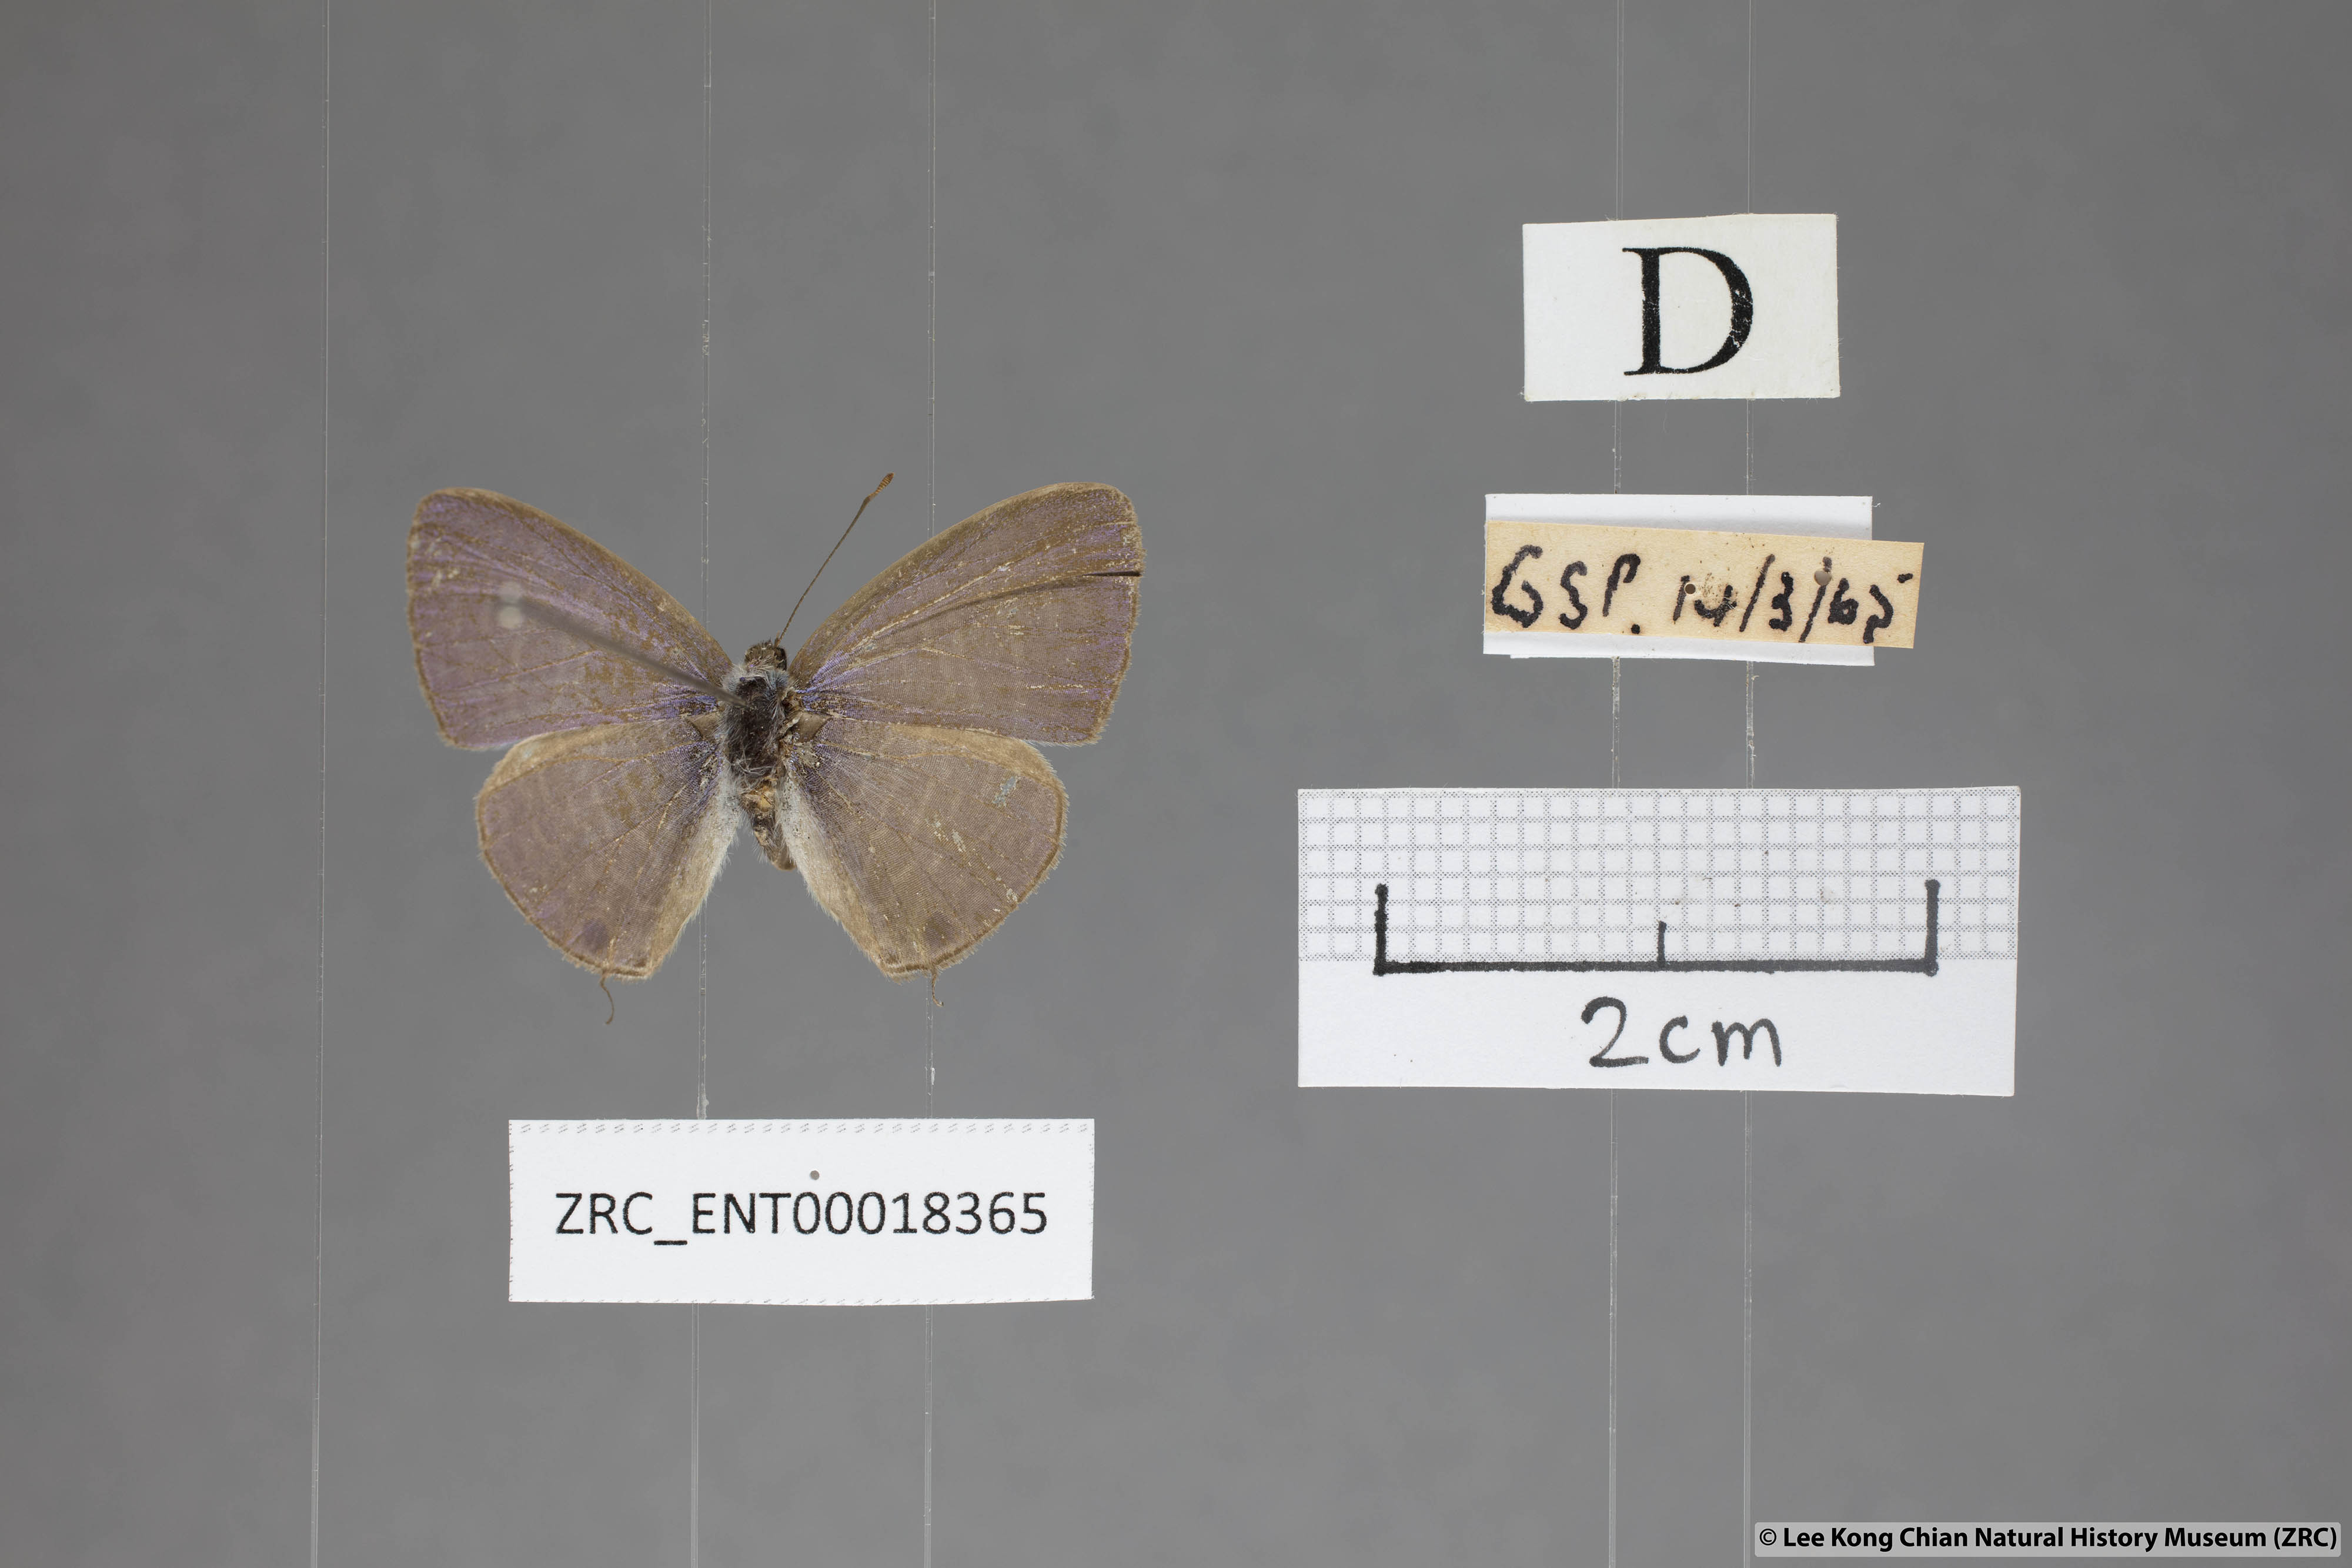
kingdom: Animalia
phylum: Arthropoda
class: Insecta
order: Lepidoptera
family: Lycaenidae
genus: Nacaduba
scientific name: Nacaduba kurava
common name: Transparent 6-line blue
